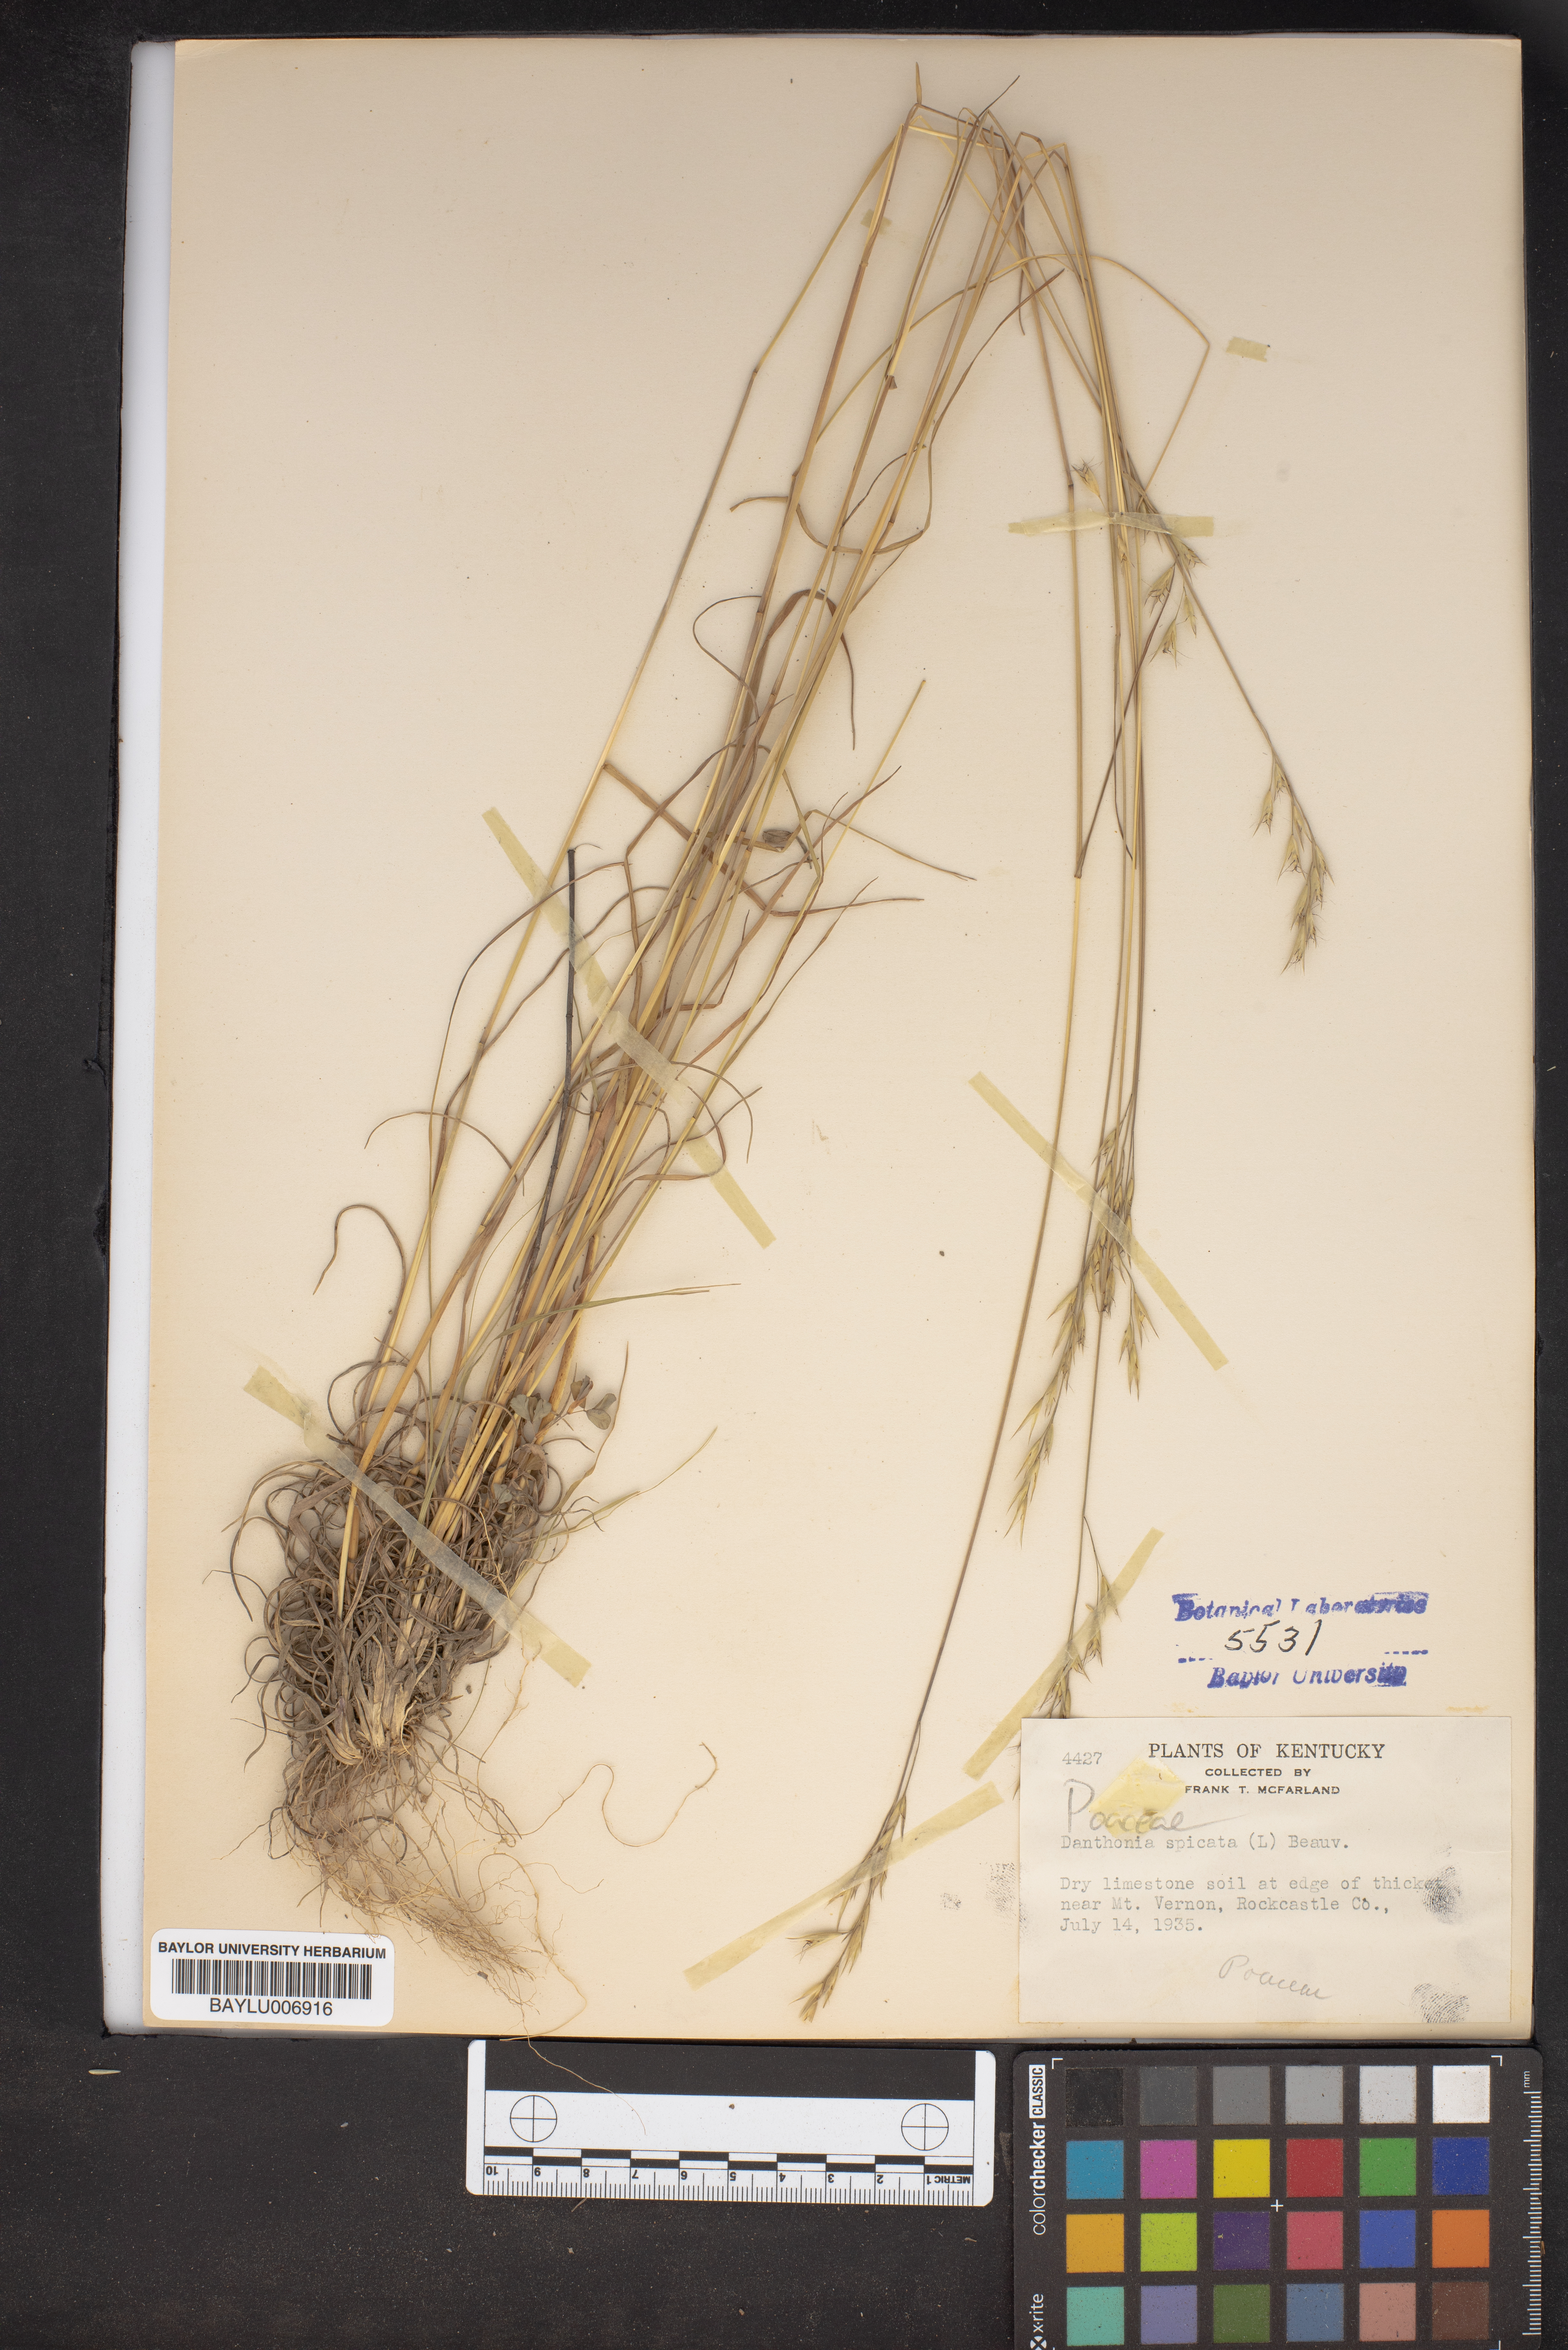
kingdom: Plantae
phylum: Tracheophyta
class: Liliopsida
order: Poales
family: Poaceae
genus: Danthonia
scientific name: Danthonia spicata
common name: Common wild oatgrass
